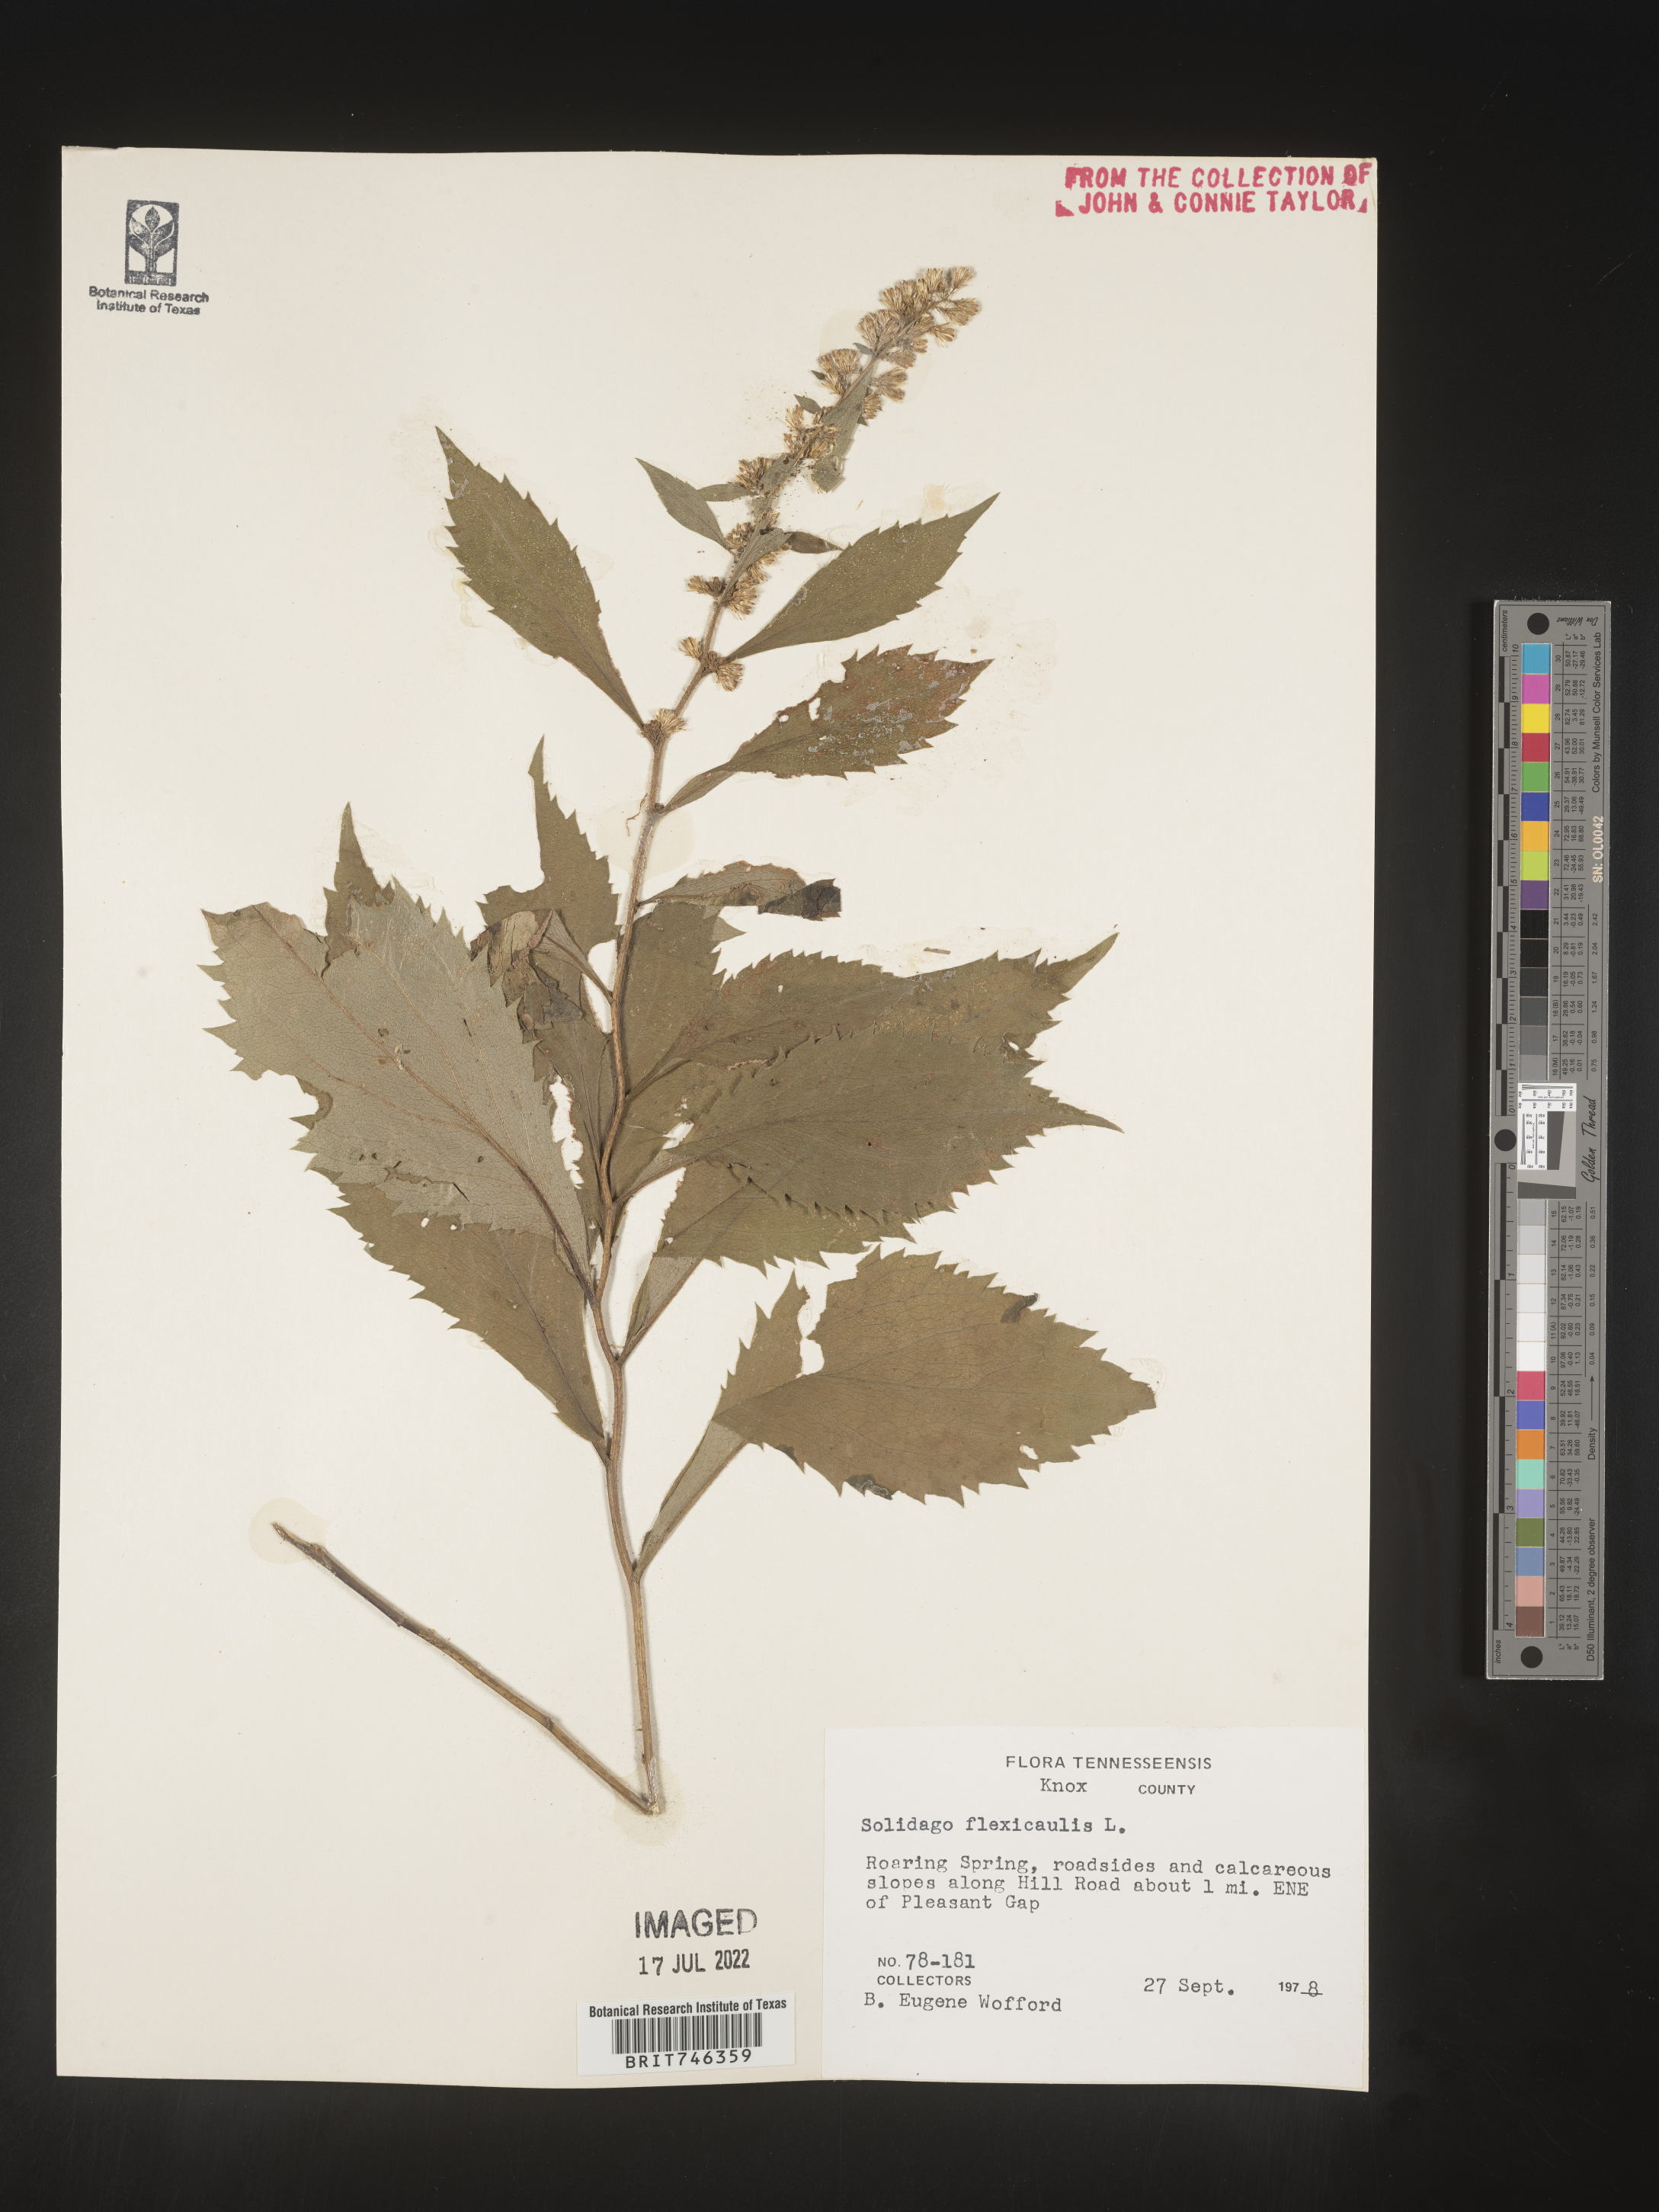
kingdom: Plantae
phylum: Tracheophyta
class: Magnoliopsida
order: Asterales
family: Asteraceae
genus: Solidago
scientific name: Solidago flexicaulis
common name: Zig-zag goldenrod
